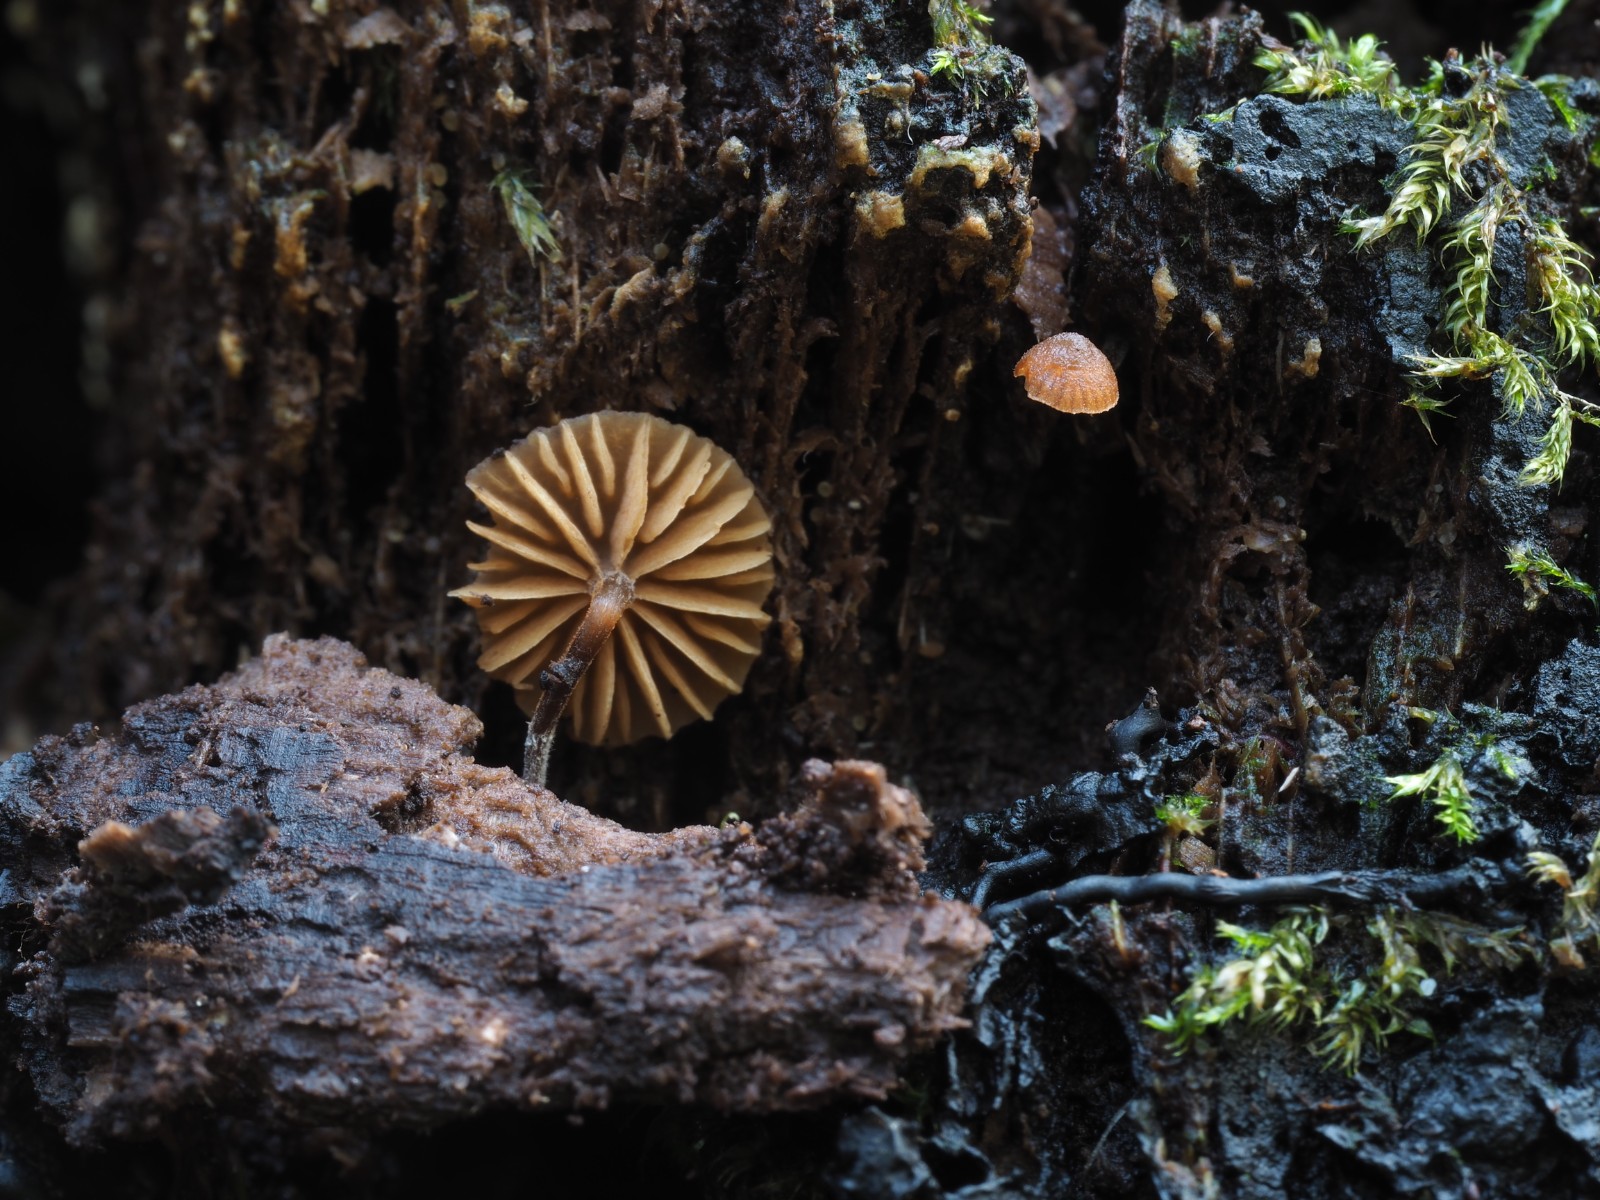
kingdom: Fungi
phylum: Basidiomycota
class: Agaricomycetes
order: Agaricales
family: Hymenogastraceae
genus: Galerina
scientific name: Galerina triscopa
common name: spidspuklet hjelmhat
